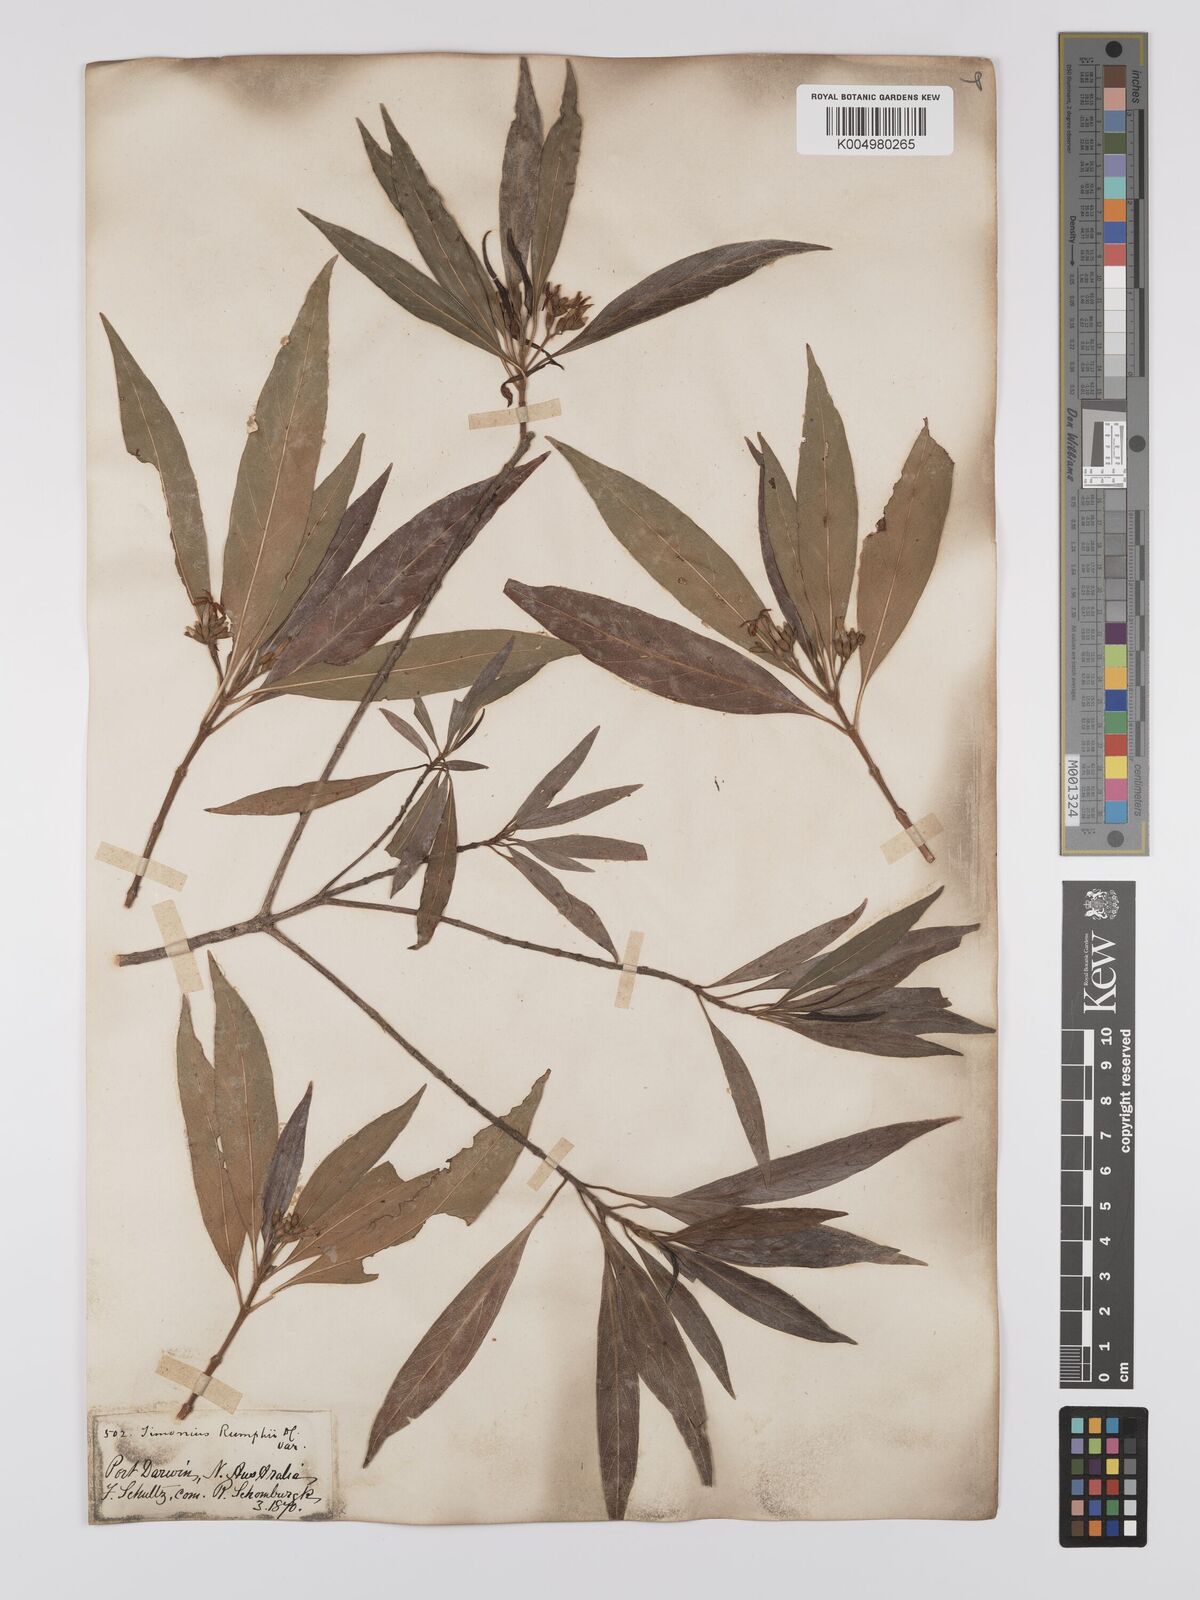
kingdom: Plantae
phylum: Tracheophyta
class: Magnoliopsida
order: Gentianales
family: Rubiaceae
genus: Timonius
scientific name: Timonius timon
